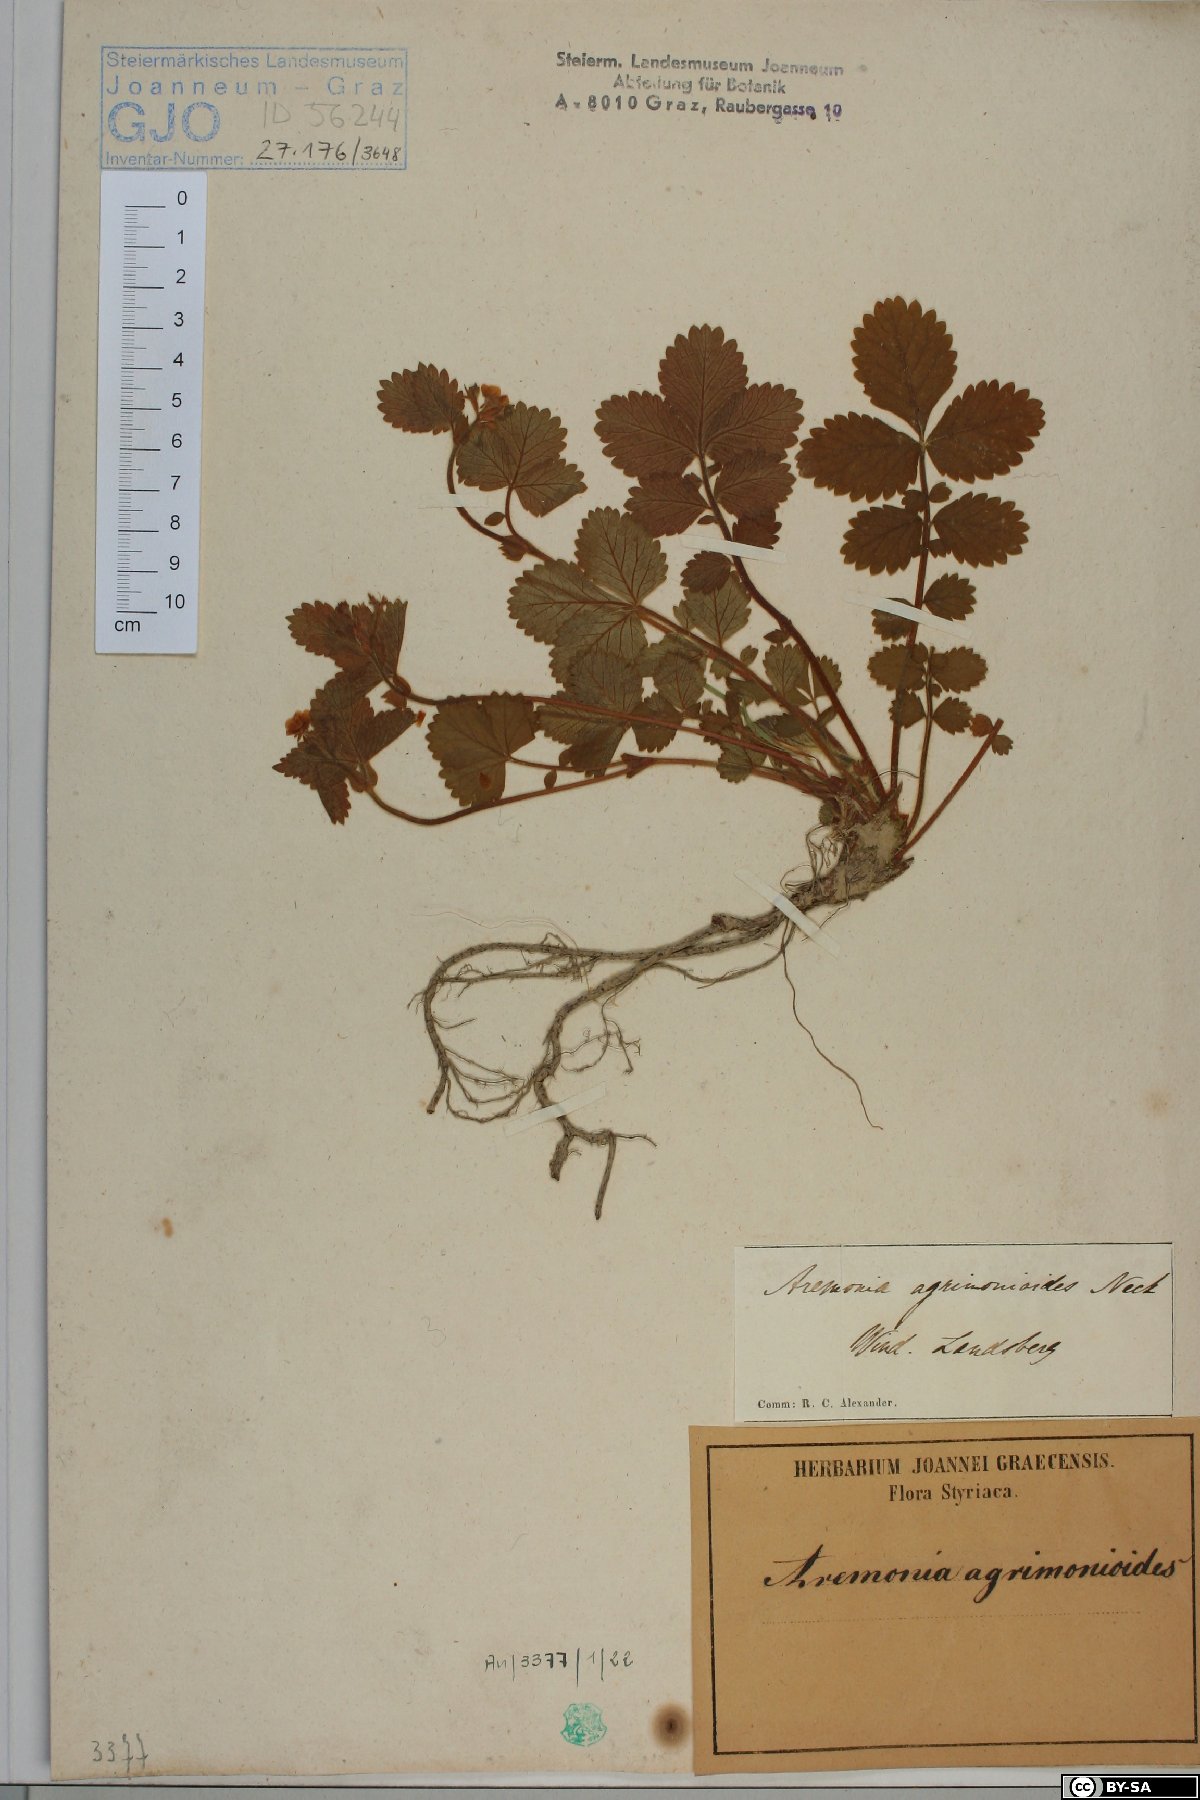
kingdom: Plantae
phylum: Tracheophyta
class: Magnoliopsida
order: Rosales
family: Rosaceae
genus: Aremonia
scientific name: Aremonia agrimonoides
